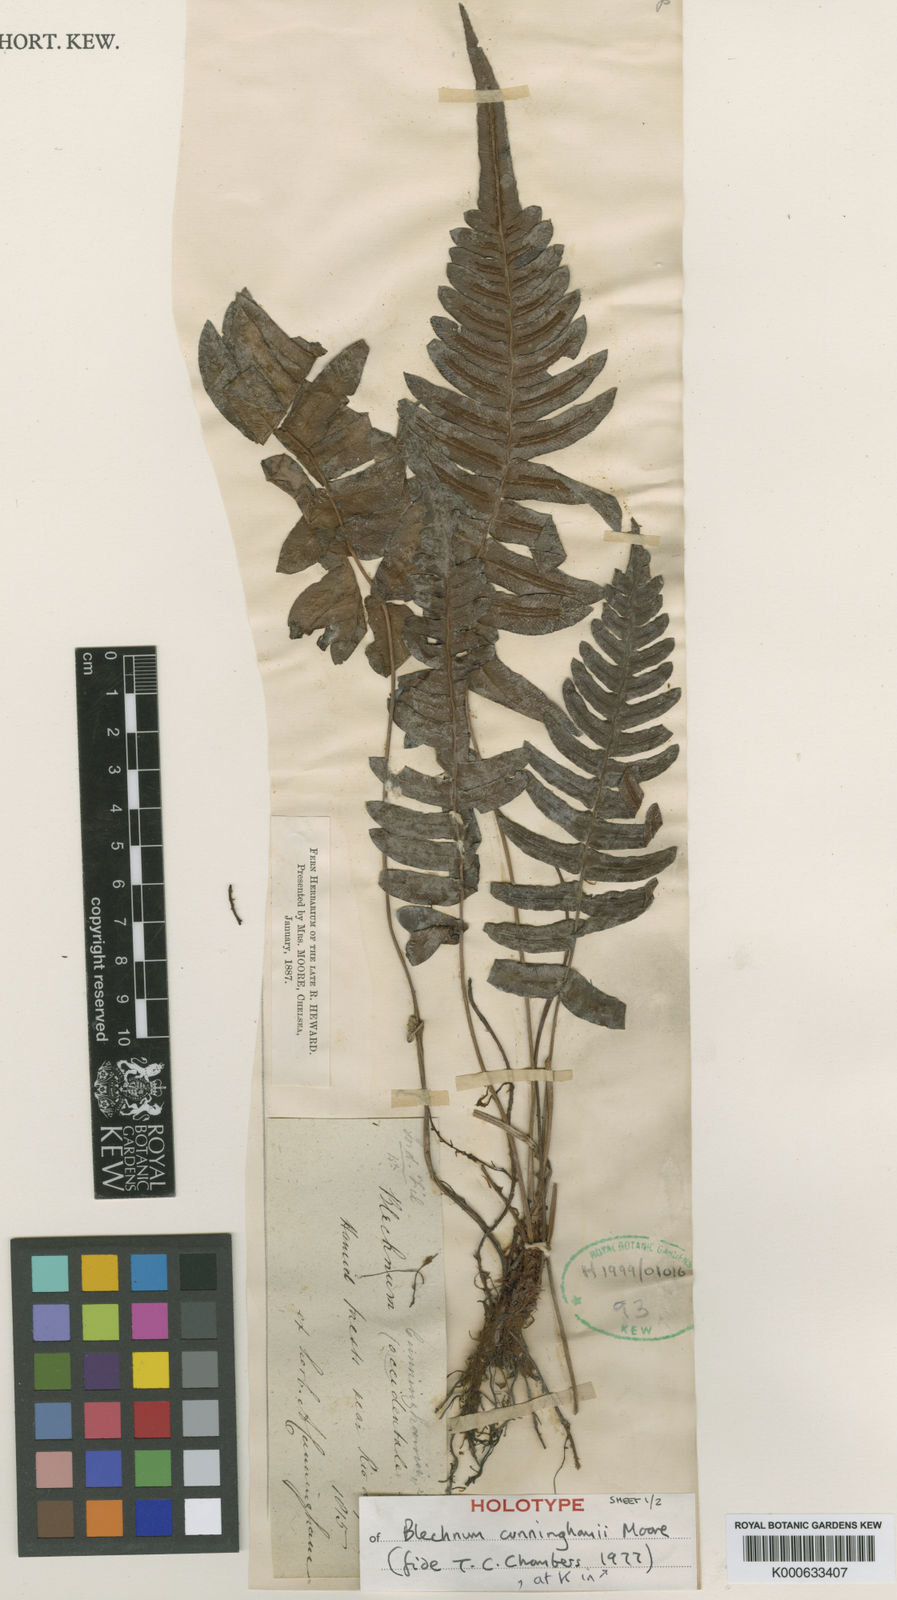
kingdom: Plantae
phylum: Tracheophyta
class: Polypodiopsida
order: Polypodiales
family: Blechnaceae
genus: Blechnum
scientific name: Blechnum occidentale
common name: Hammock fern
